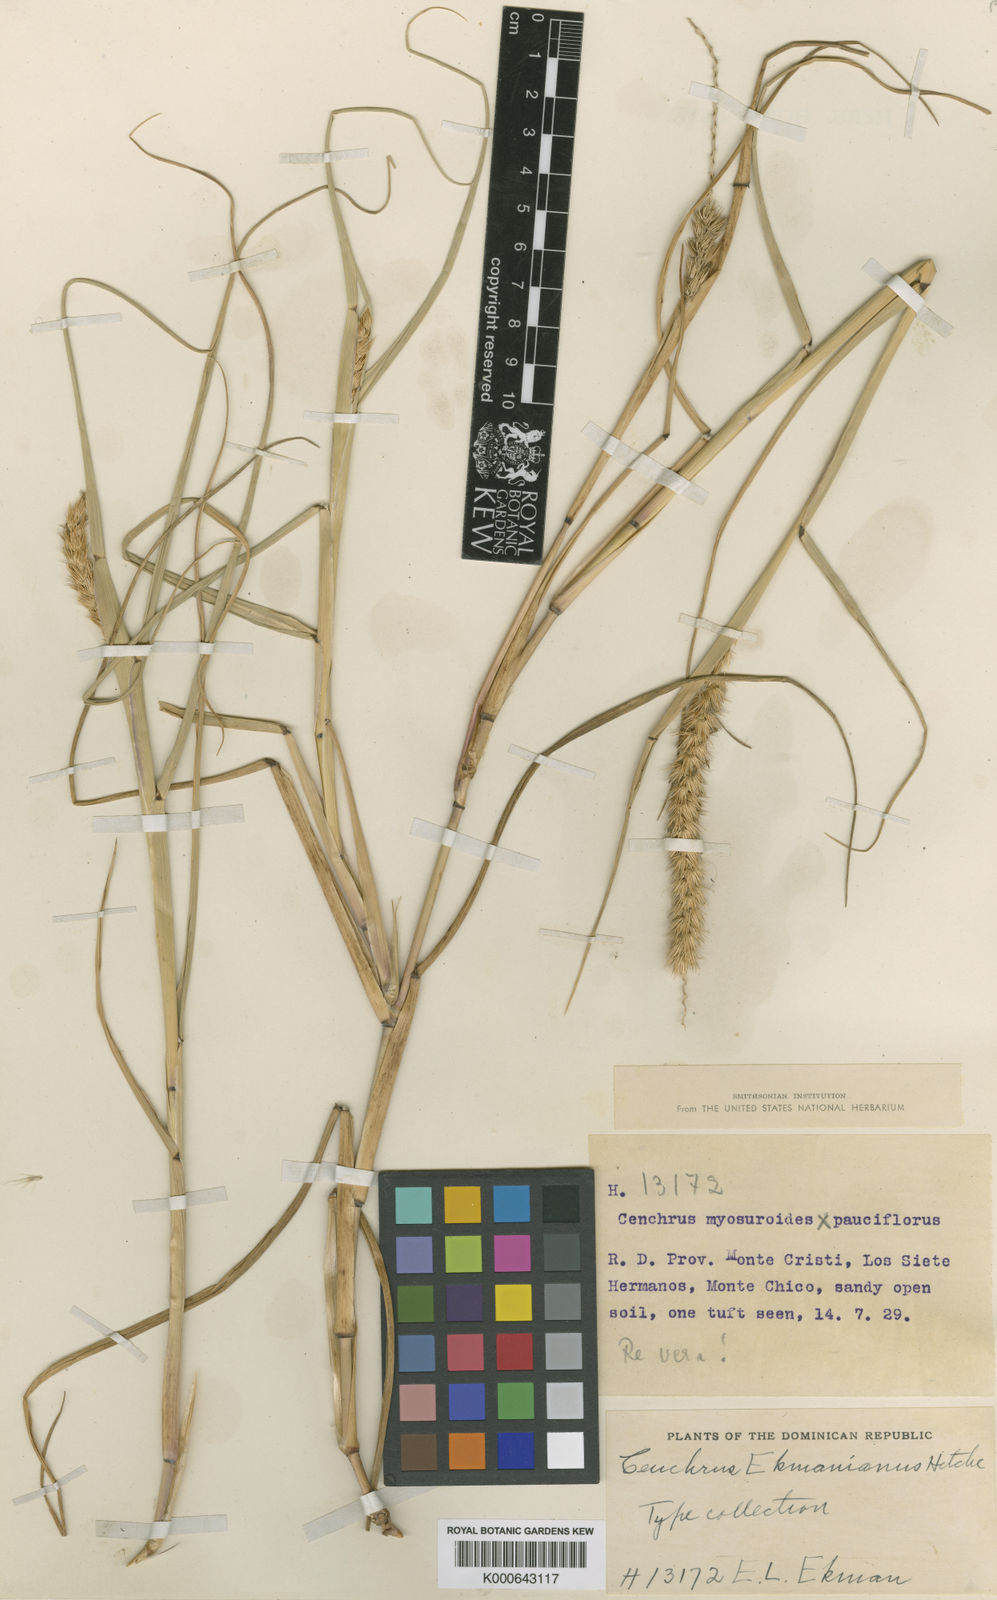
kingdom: Plantae
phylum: Tracheophyta
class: Liliopsida
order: Poales
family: Poaceae
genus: Cenchrus
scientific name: Cenchrus myosuroides
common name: Big sandbur
